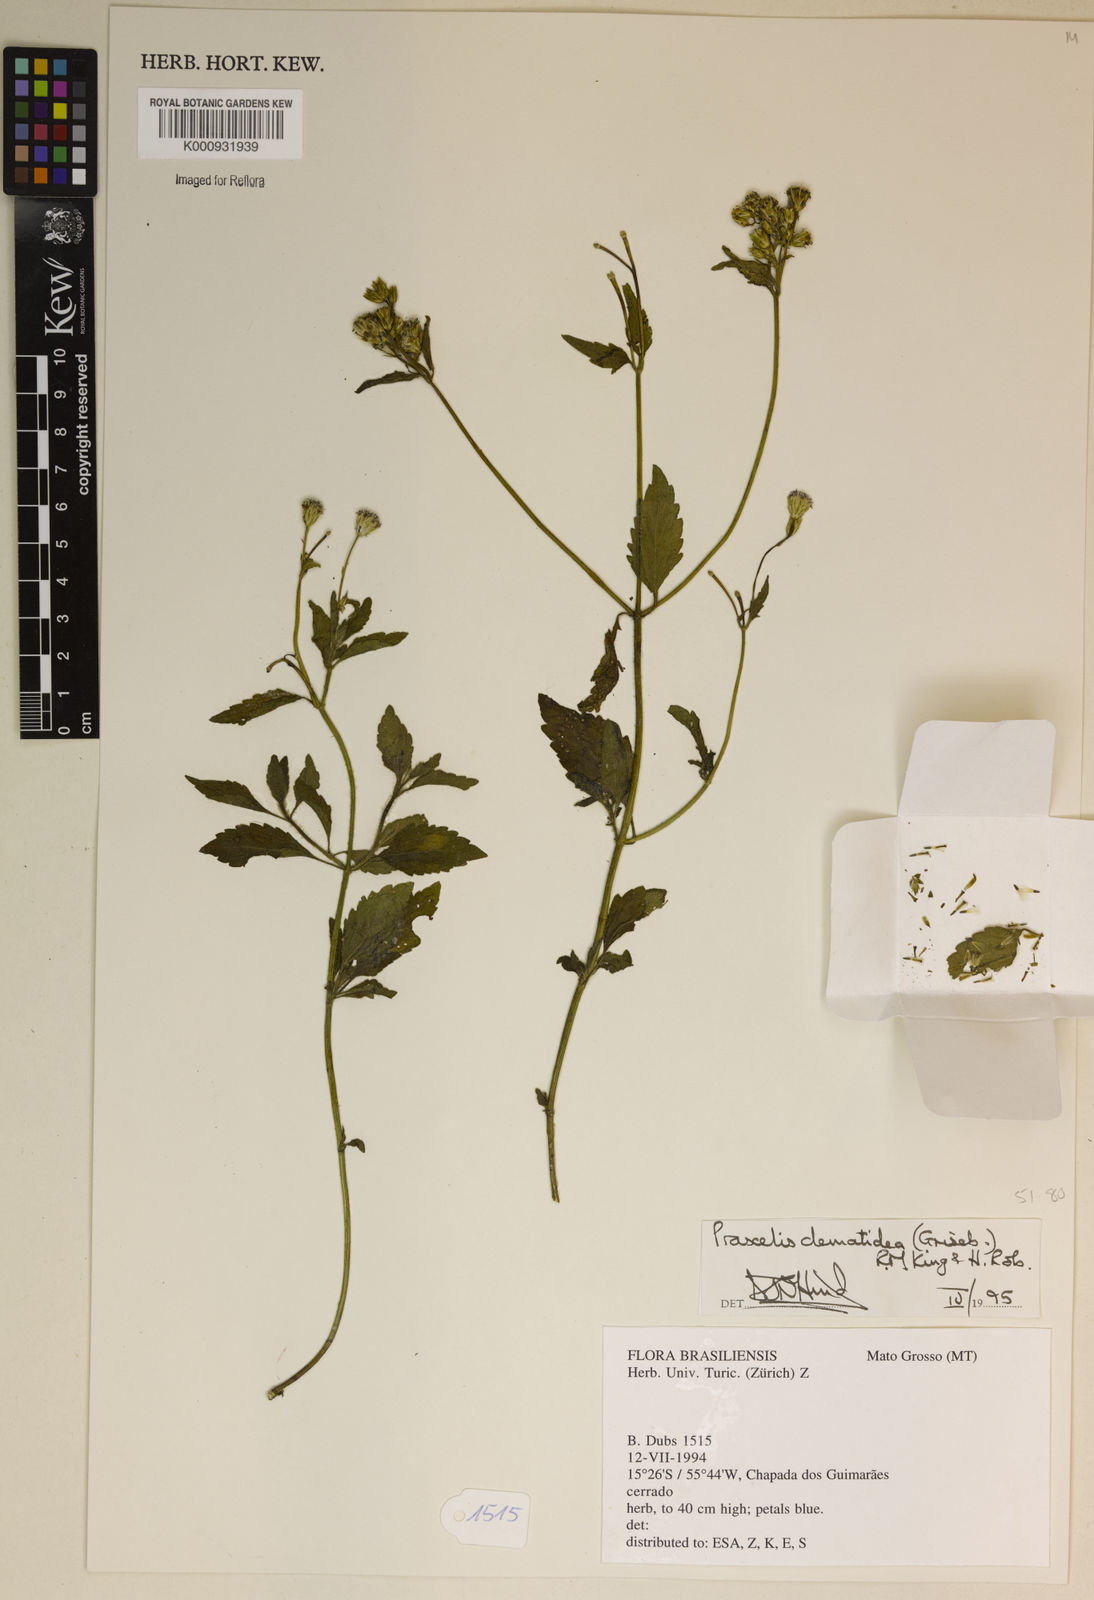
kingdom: Plantae
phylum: Tracheophyta
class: Magnoliopsida
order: Asterales
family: Asteraceae
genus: Praxelis
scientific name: Praxelis clematidea
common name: Praxelis
